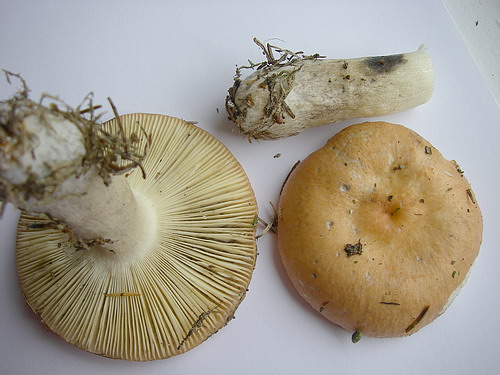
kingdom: Fungi
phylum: Basidiomycota
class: Agaricomycetes
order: Russulales
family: Russulaceae
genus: Russula
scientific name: Russula decolorans
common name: afblegende skørhat
